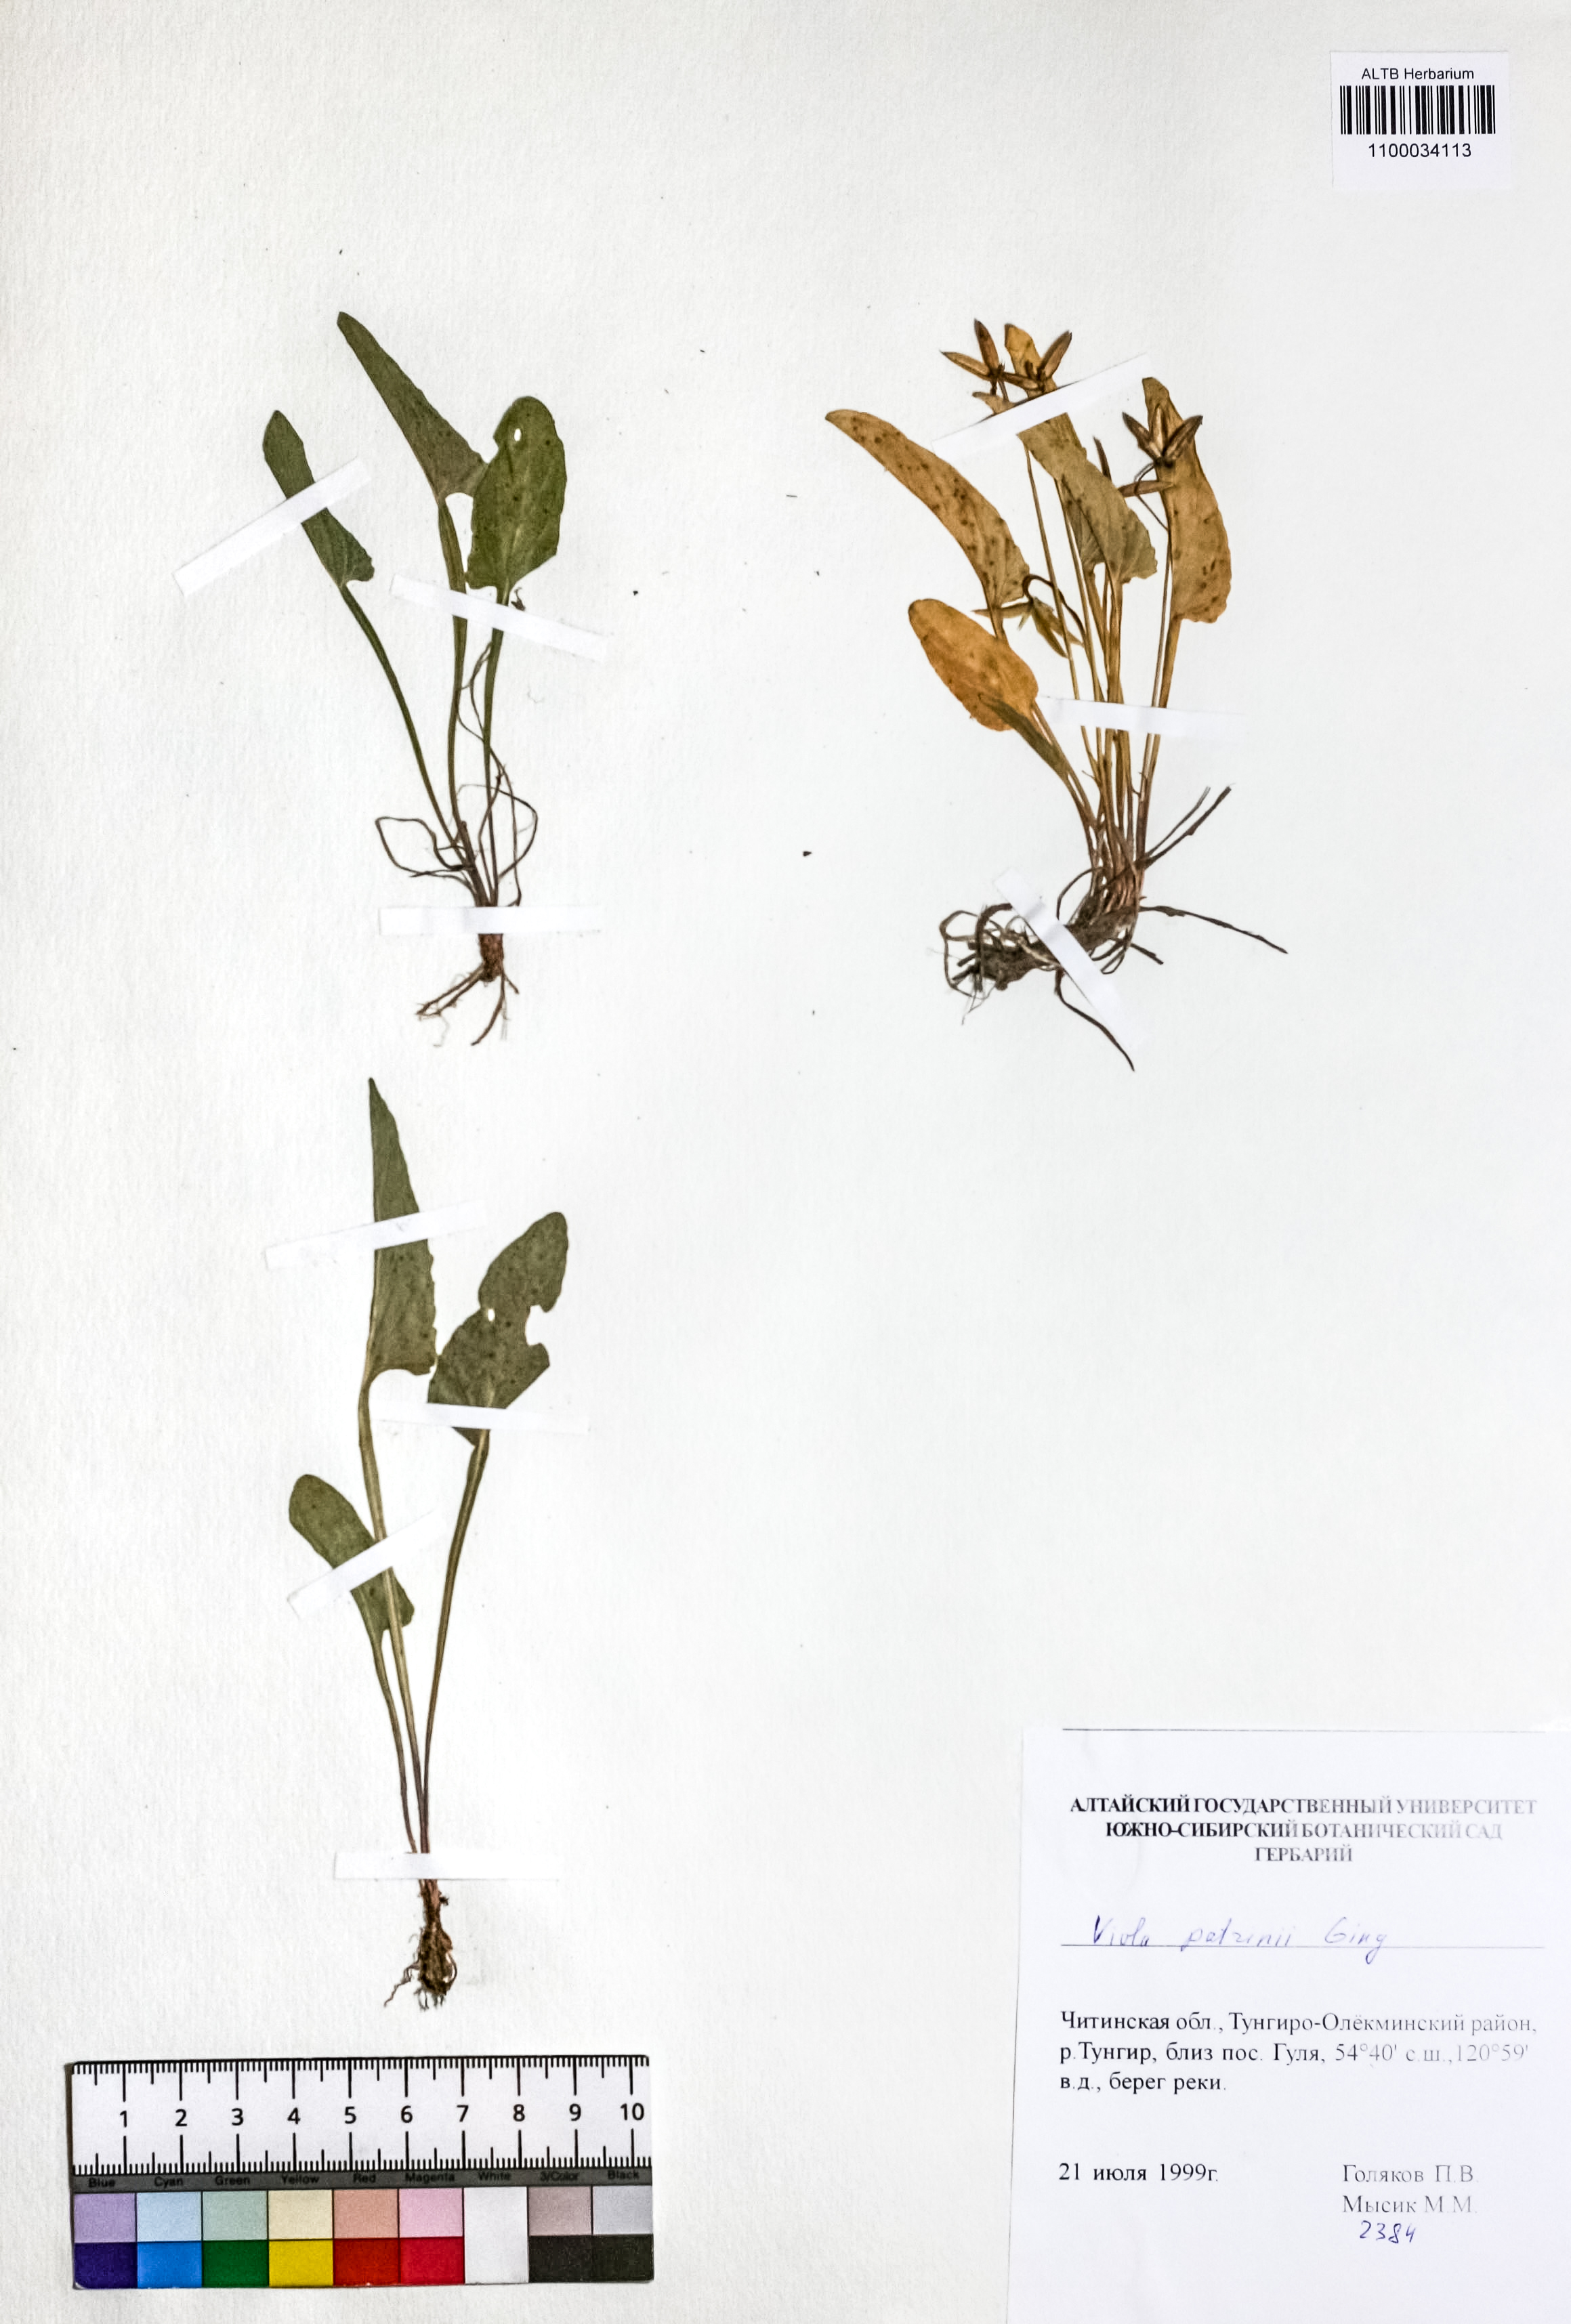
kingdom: Plantae
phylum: Tracheophyta
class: Magnoliopsida
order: Malpighiales
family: Violaceae
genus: Viola
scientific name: Viola patrinii
